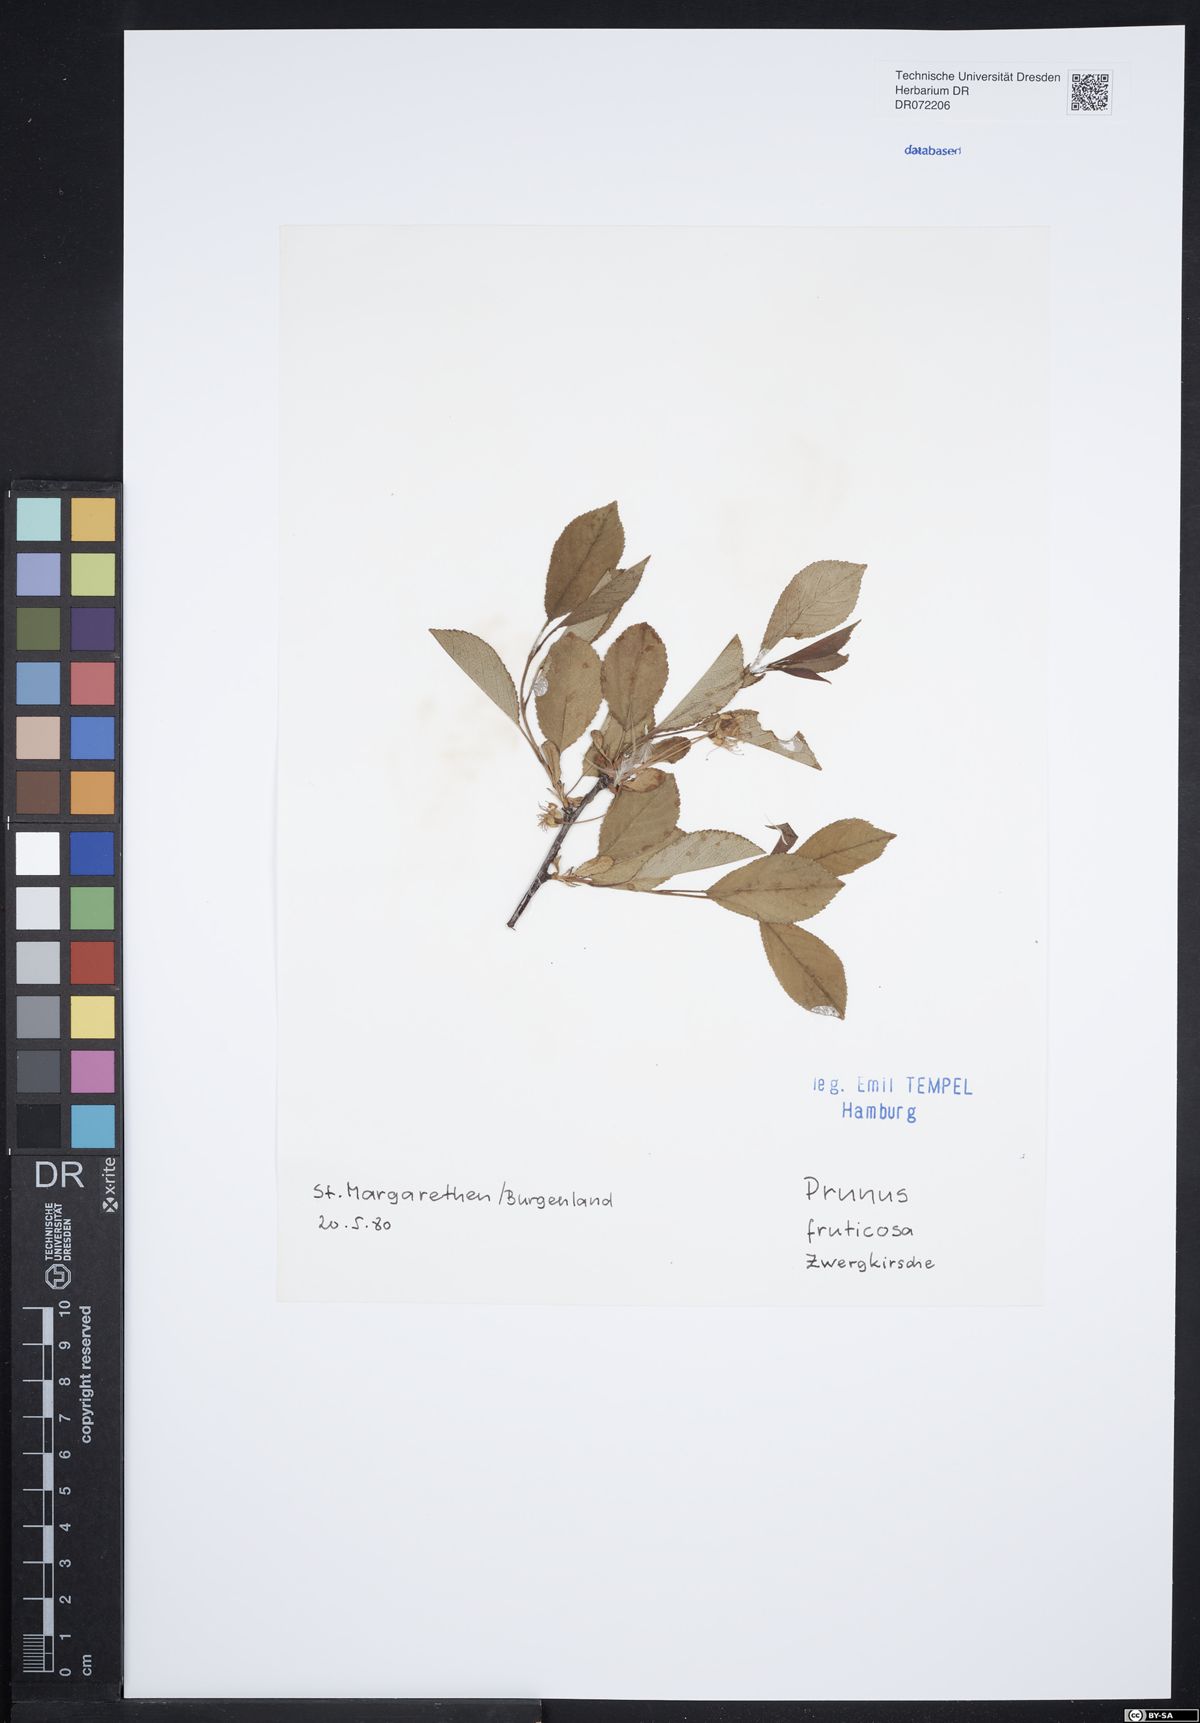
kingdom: Plantae
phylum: Tracheophyta
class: Magnoliopsida
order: Rosales
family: Rosaceae
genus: Prunus
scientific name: Prunus fruticosa
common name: European dwarf cherry
